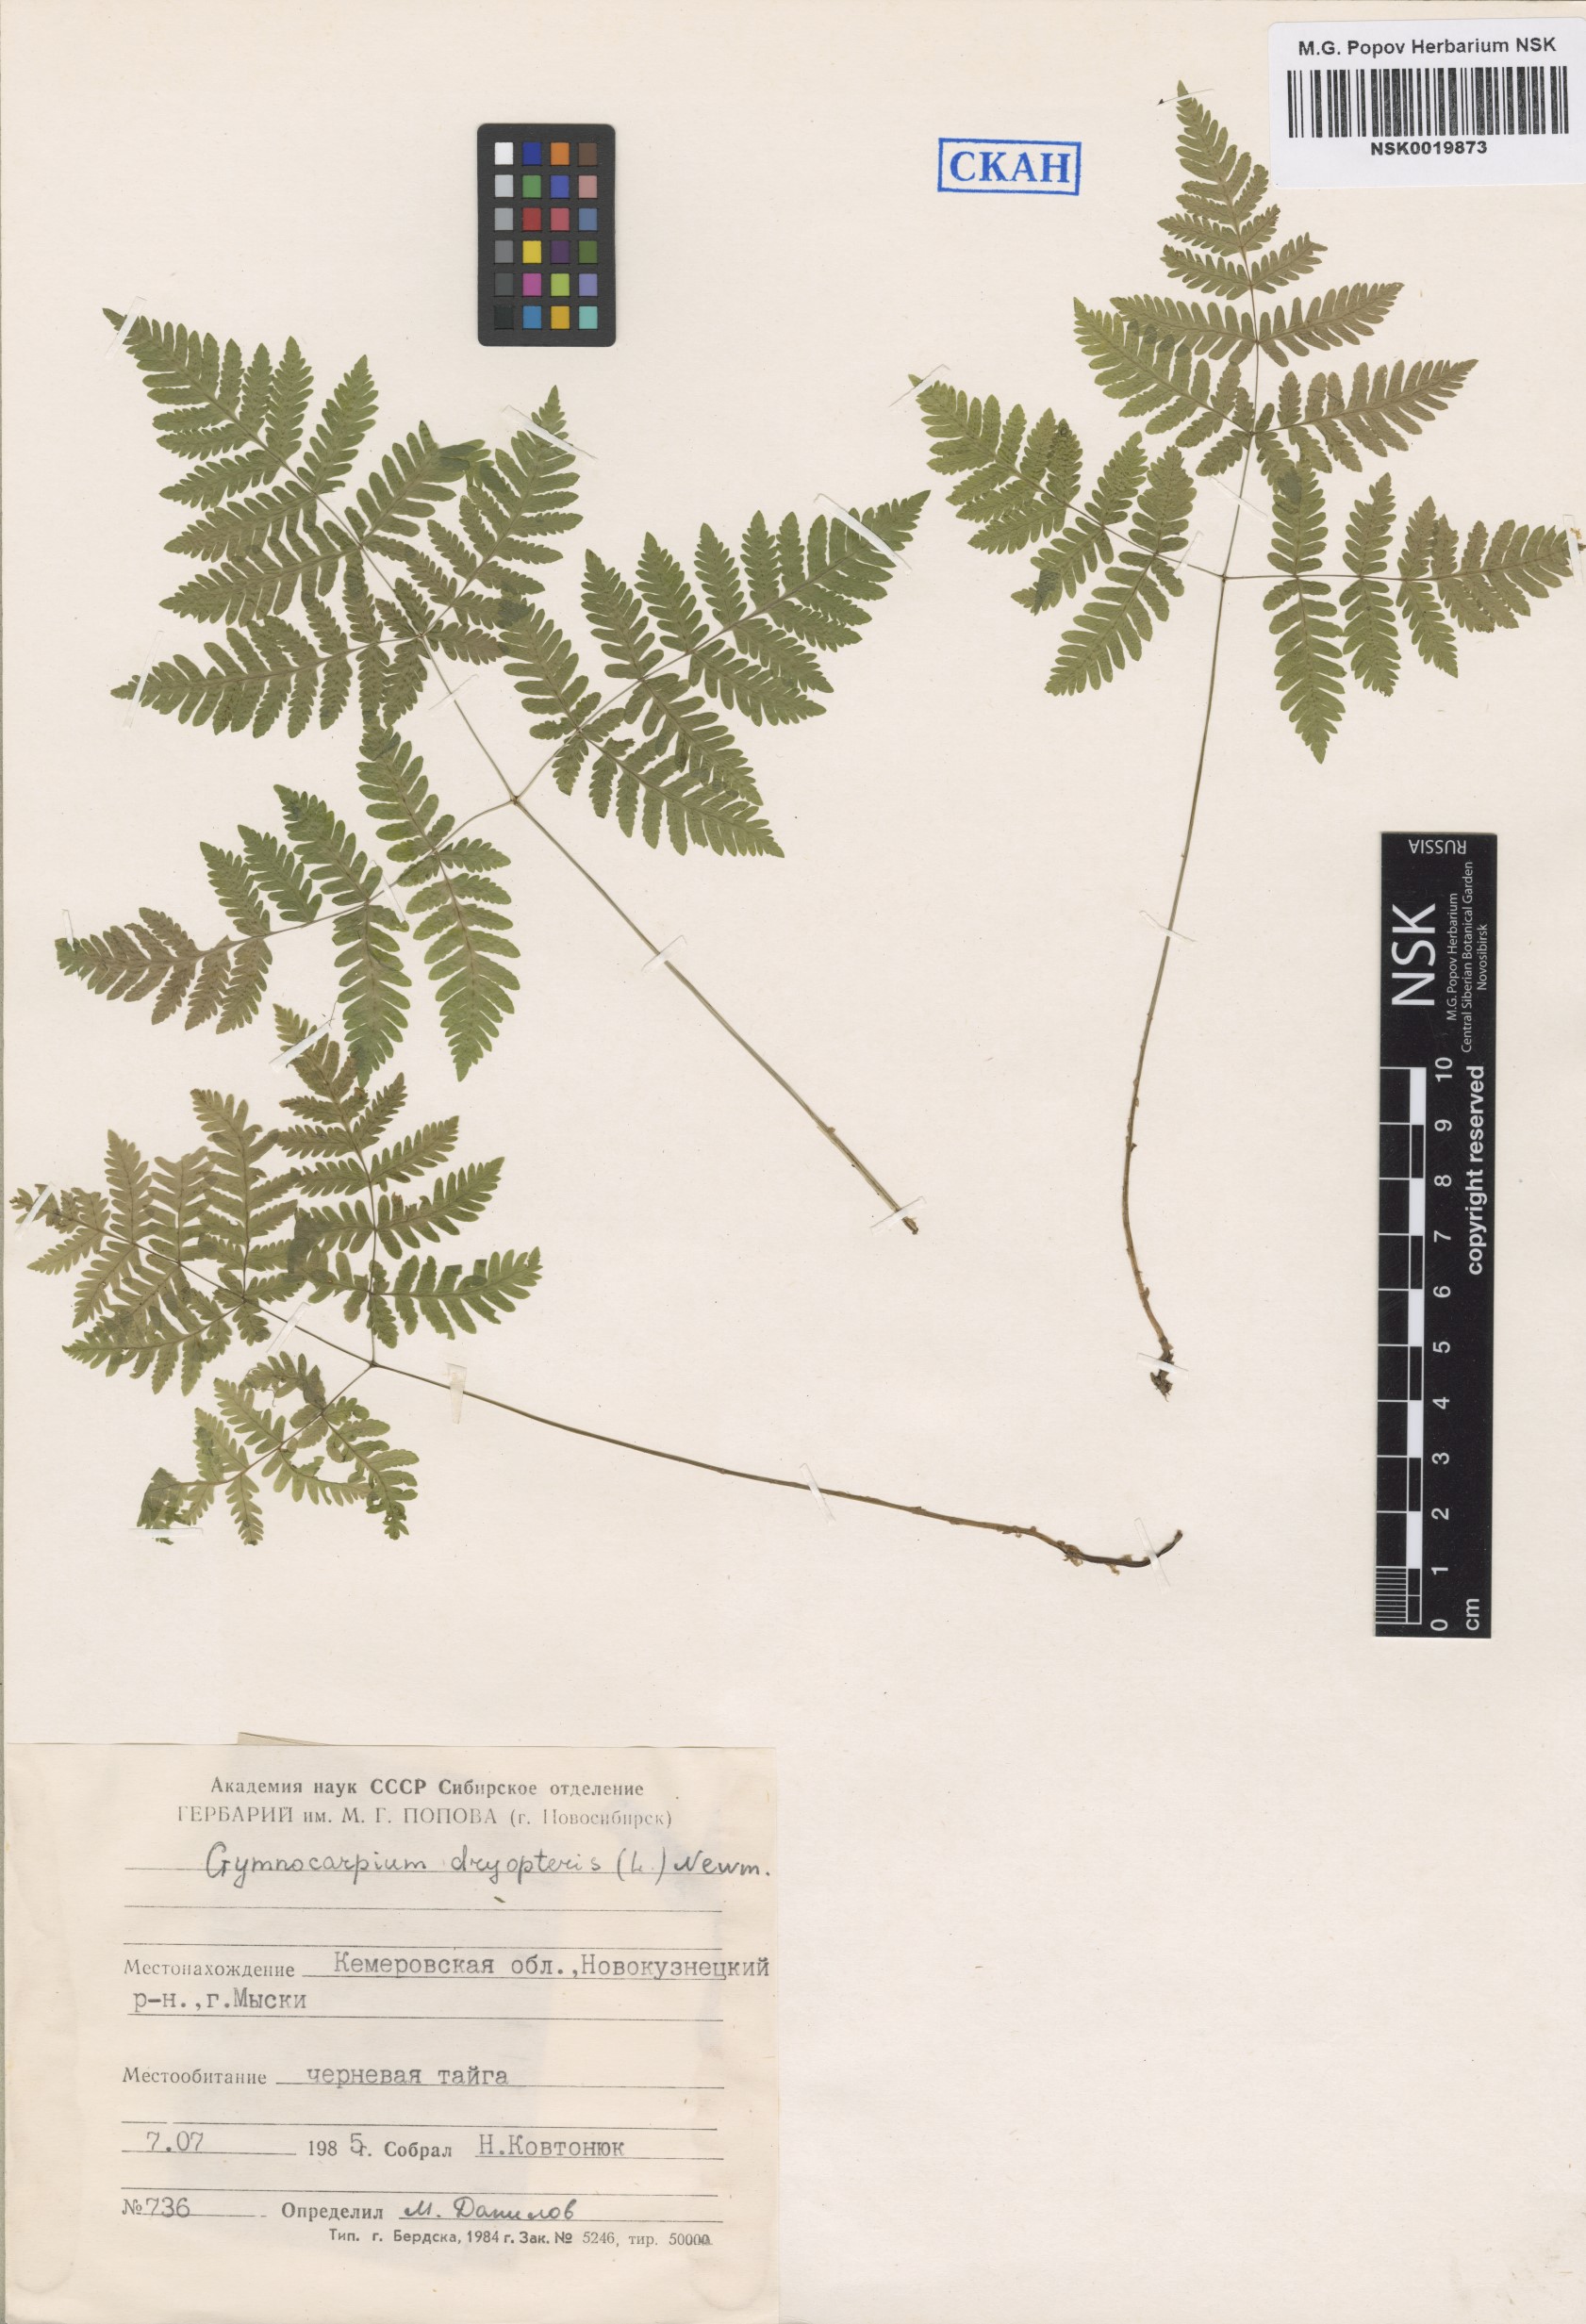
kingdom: Plantae
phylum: Tracheophyta
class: Polypodiopsida
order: Polypodiales
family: Cystopteridaceae
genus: Gymnocarpium
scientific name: Gymnocarpium dryopteris
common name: Oak fern
